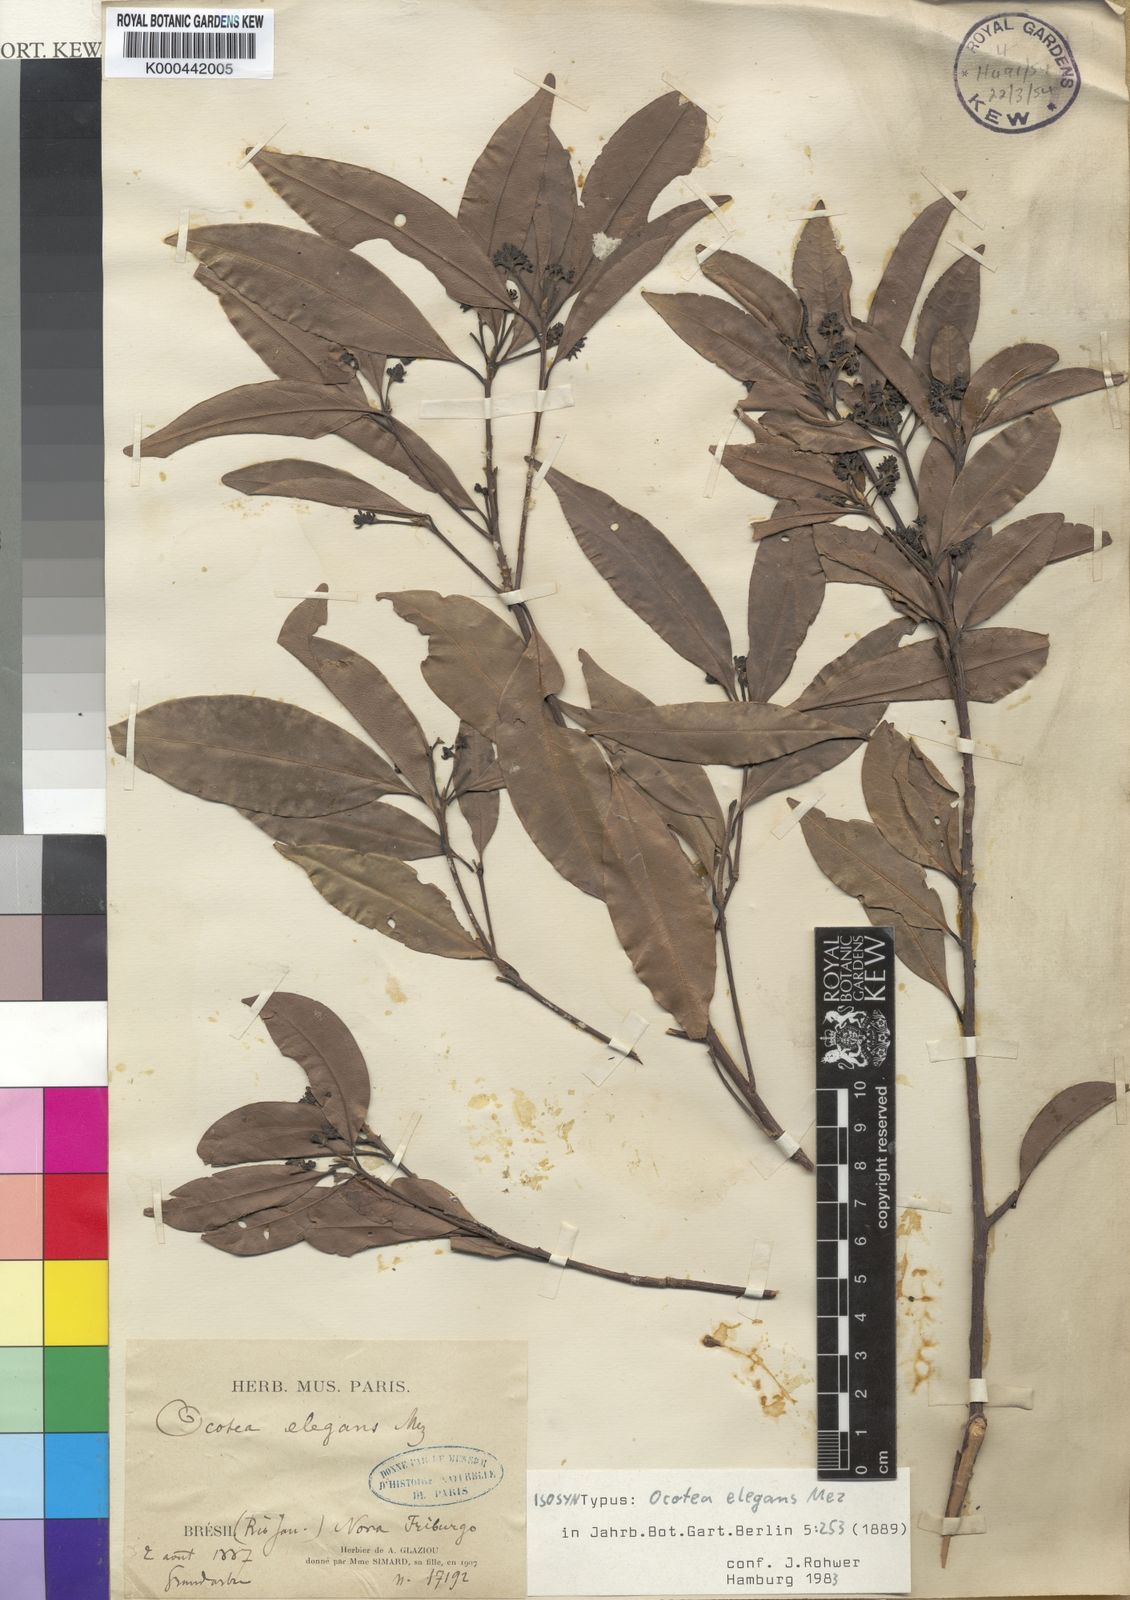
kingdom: Plantae
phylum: Tracheophyta
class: Magnoliopsida
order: Laurales
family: Lauraceae
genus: Mespilodaphne
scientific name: Mespilodaphne indecora
